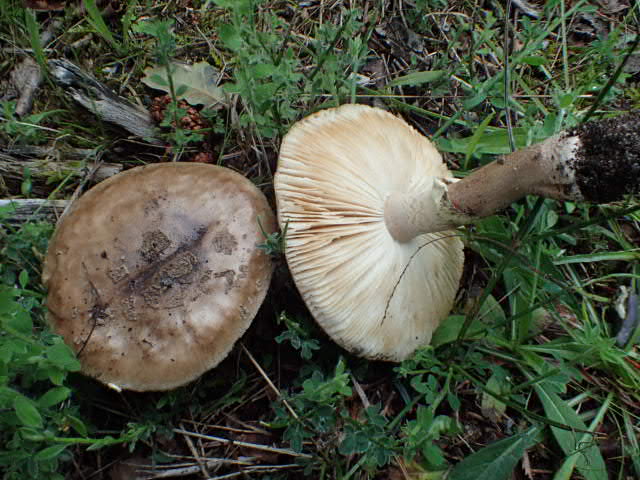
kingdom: Fungi
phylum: Basidiomycota
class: Agaricomycetes
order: Agaricales
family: Amanitaceae
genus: Amanita
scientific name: Amanita rubescens
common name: rødmende fluesvamp
